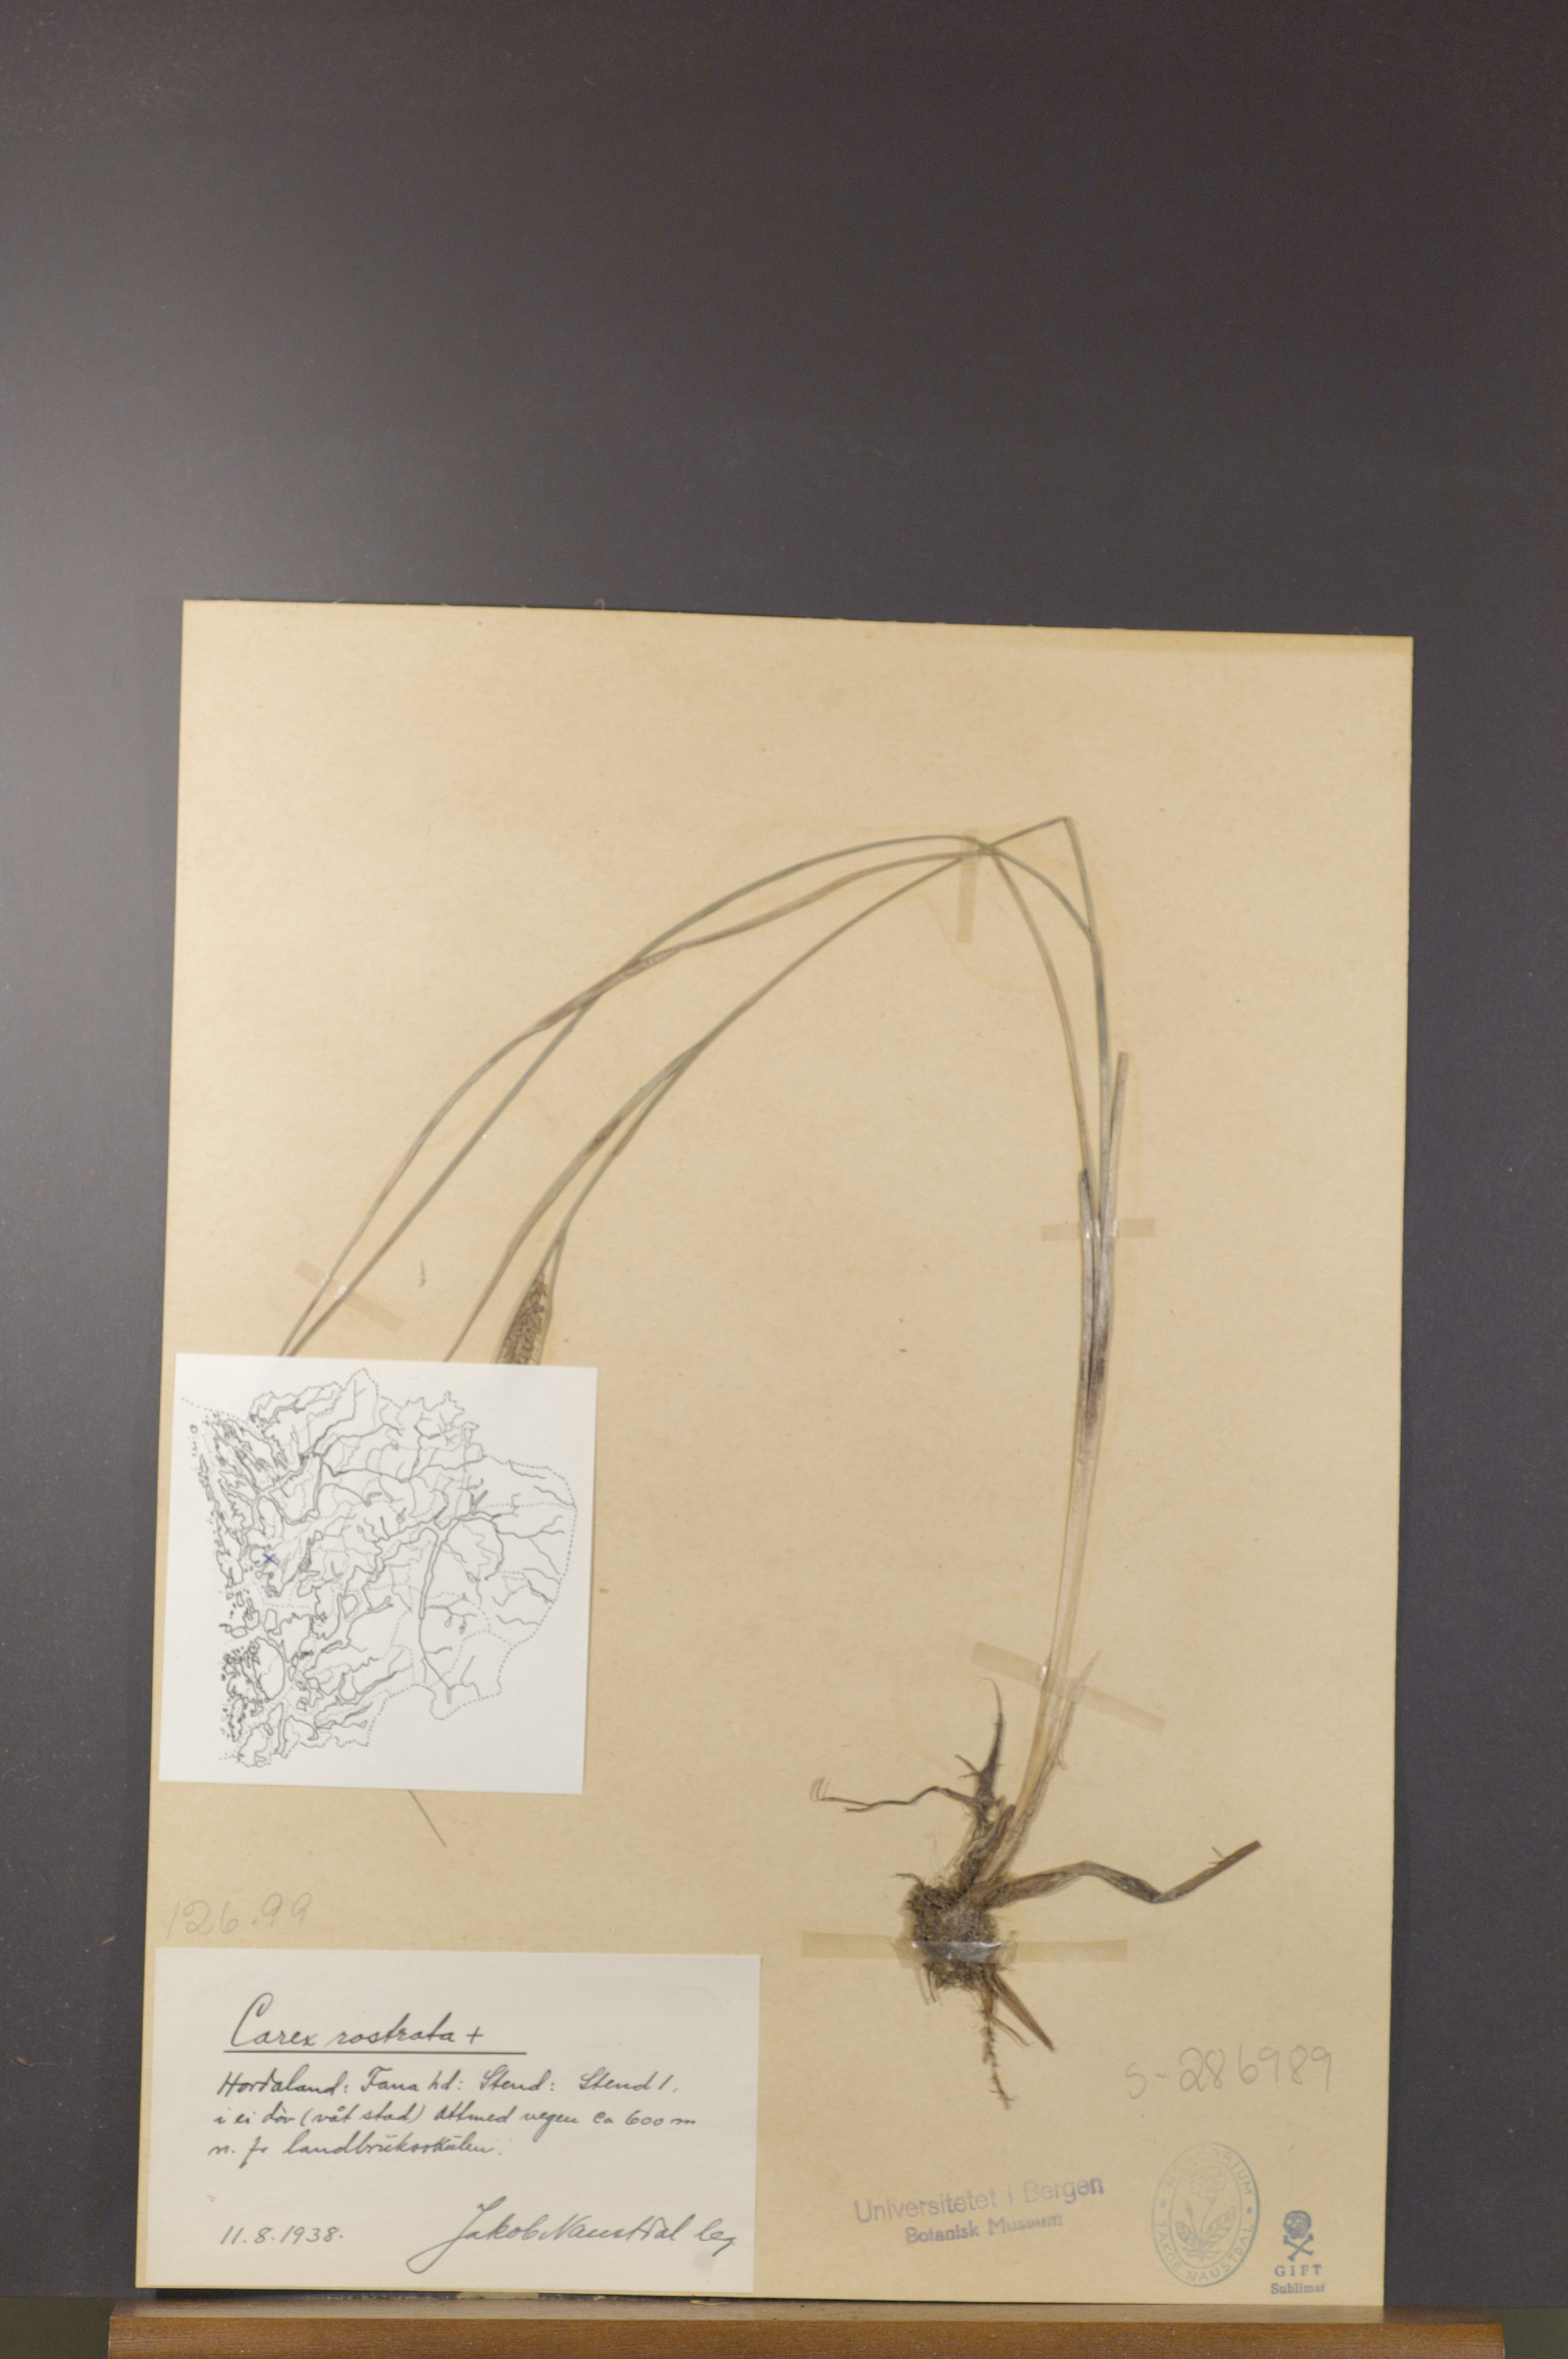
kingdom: Plantae
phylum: Tracheophyta
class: Liliopsida
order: Poales
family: Cyperaceae
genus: Carex
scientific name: Carex rostrata
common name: Bottle sedge
